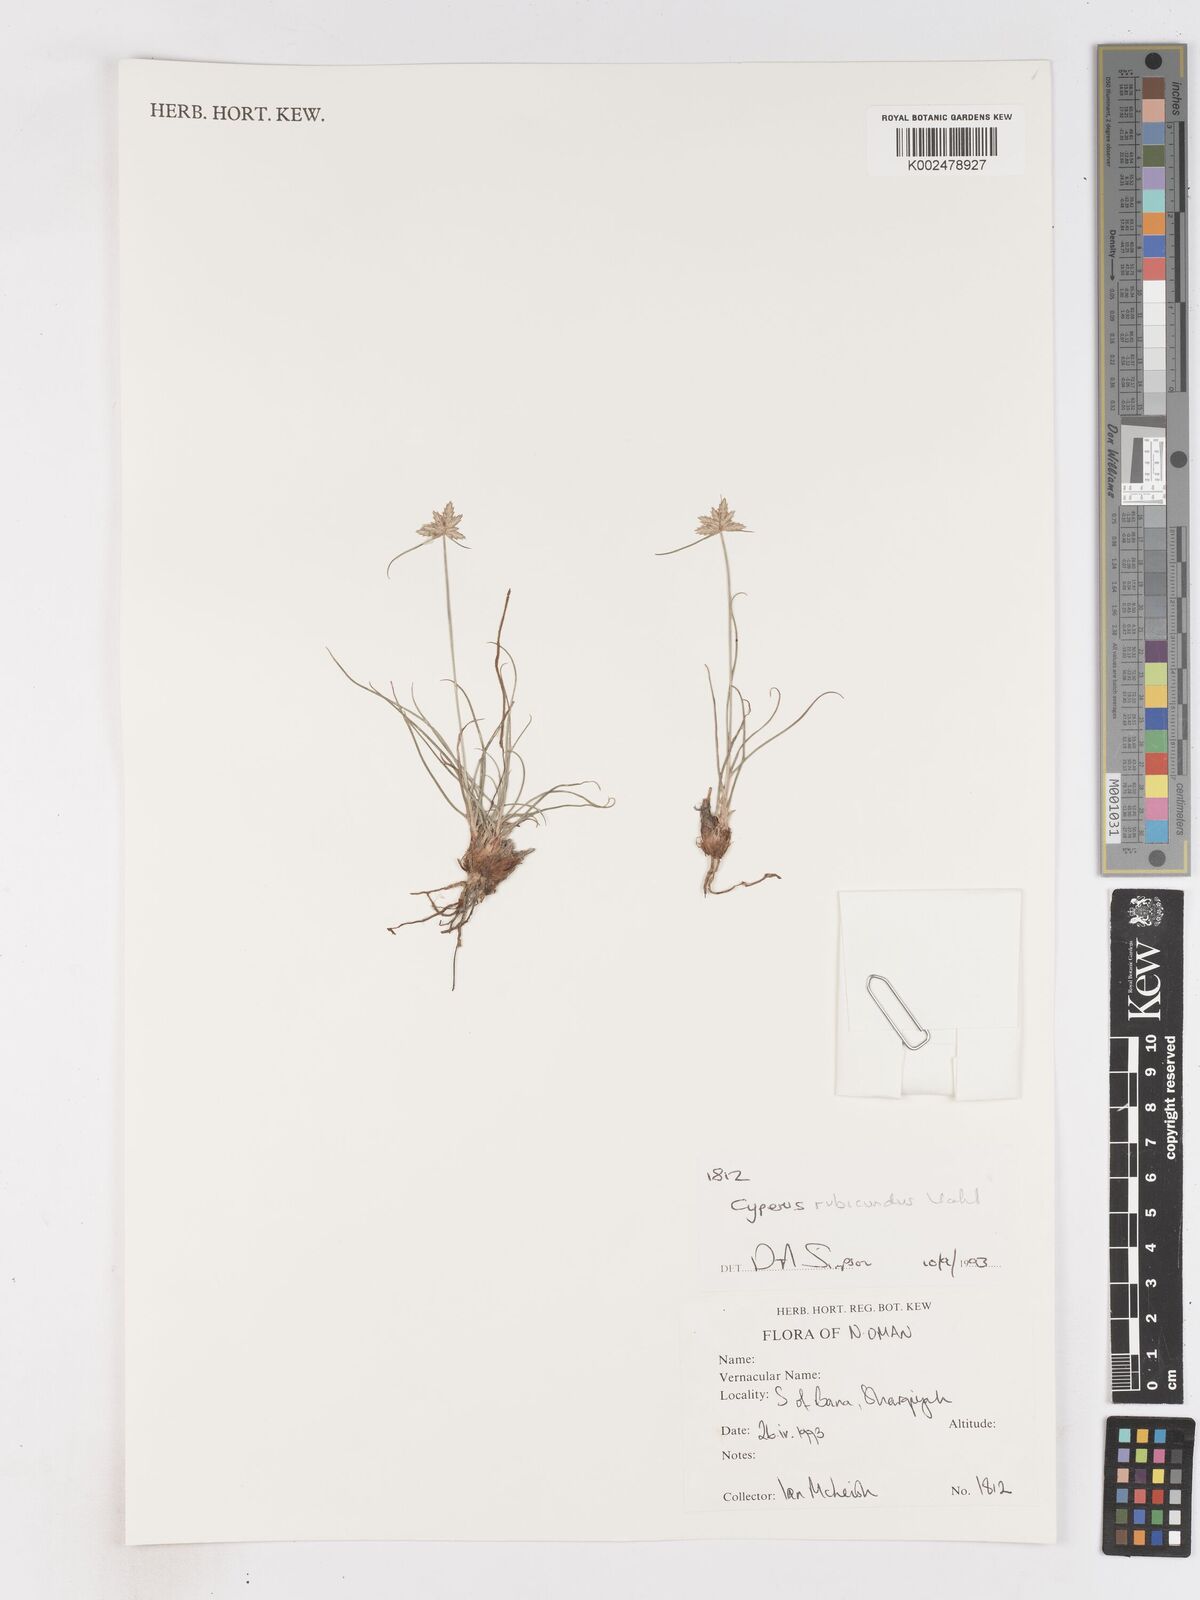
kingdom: Plantae
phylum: Tracheophyta
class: Liliopsida
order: Poales
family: Cyperaceae
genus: Cyperus
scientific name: Cyperus wissmannii
